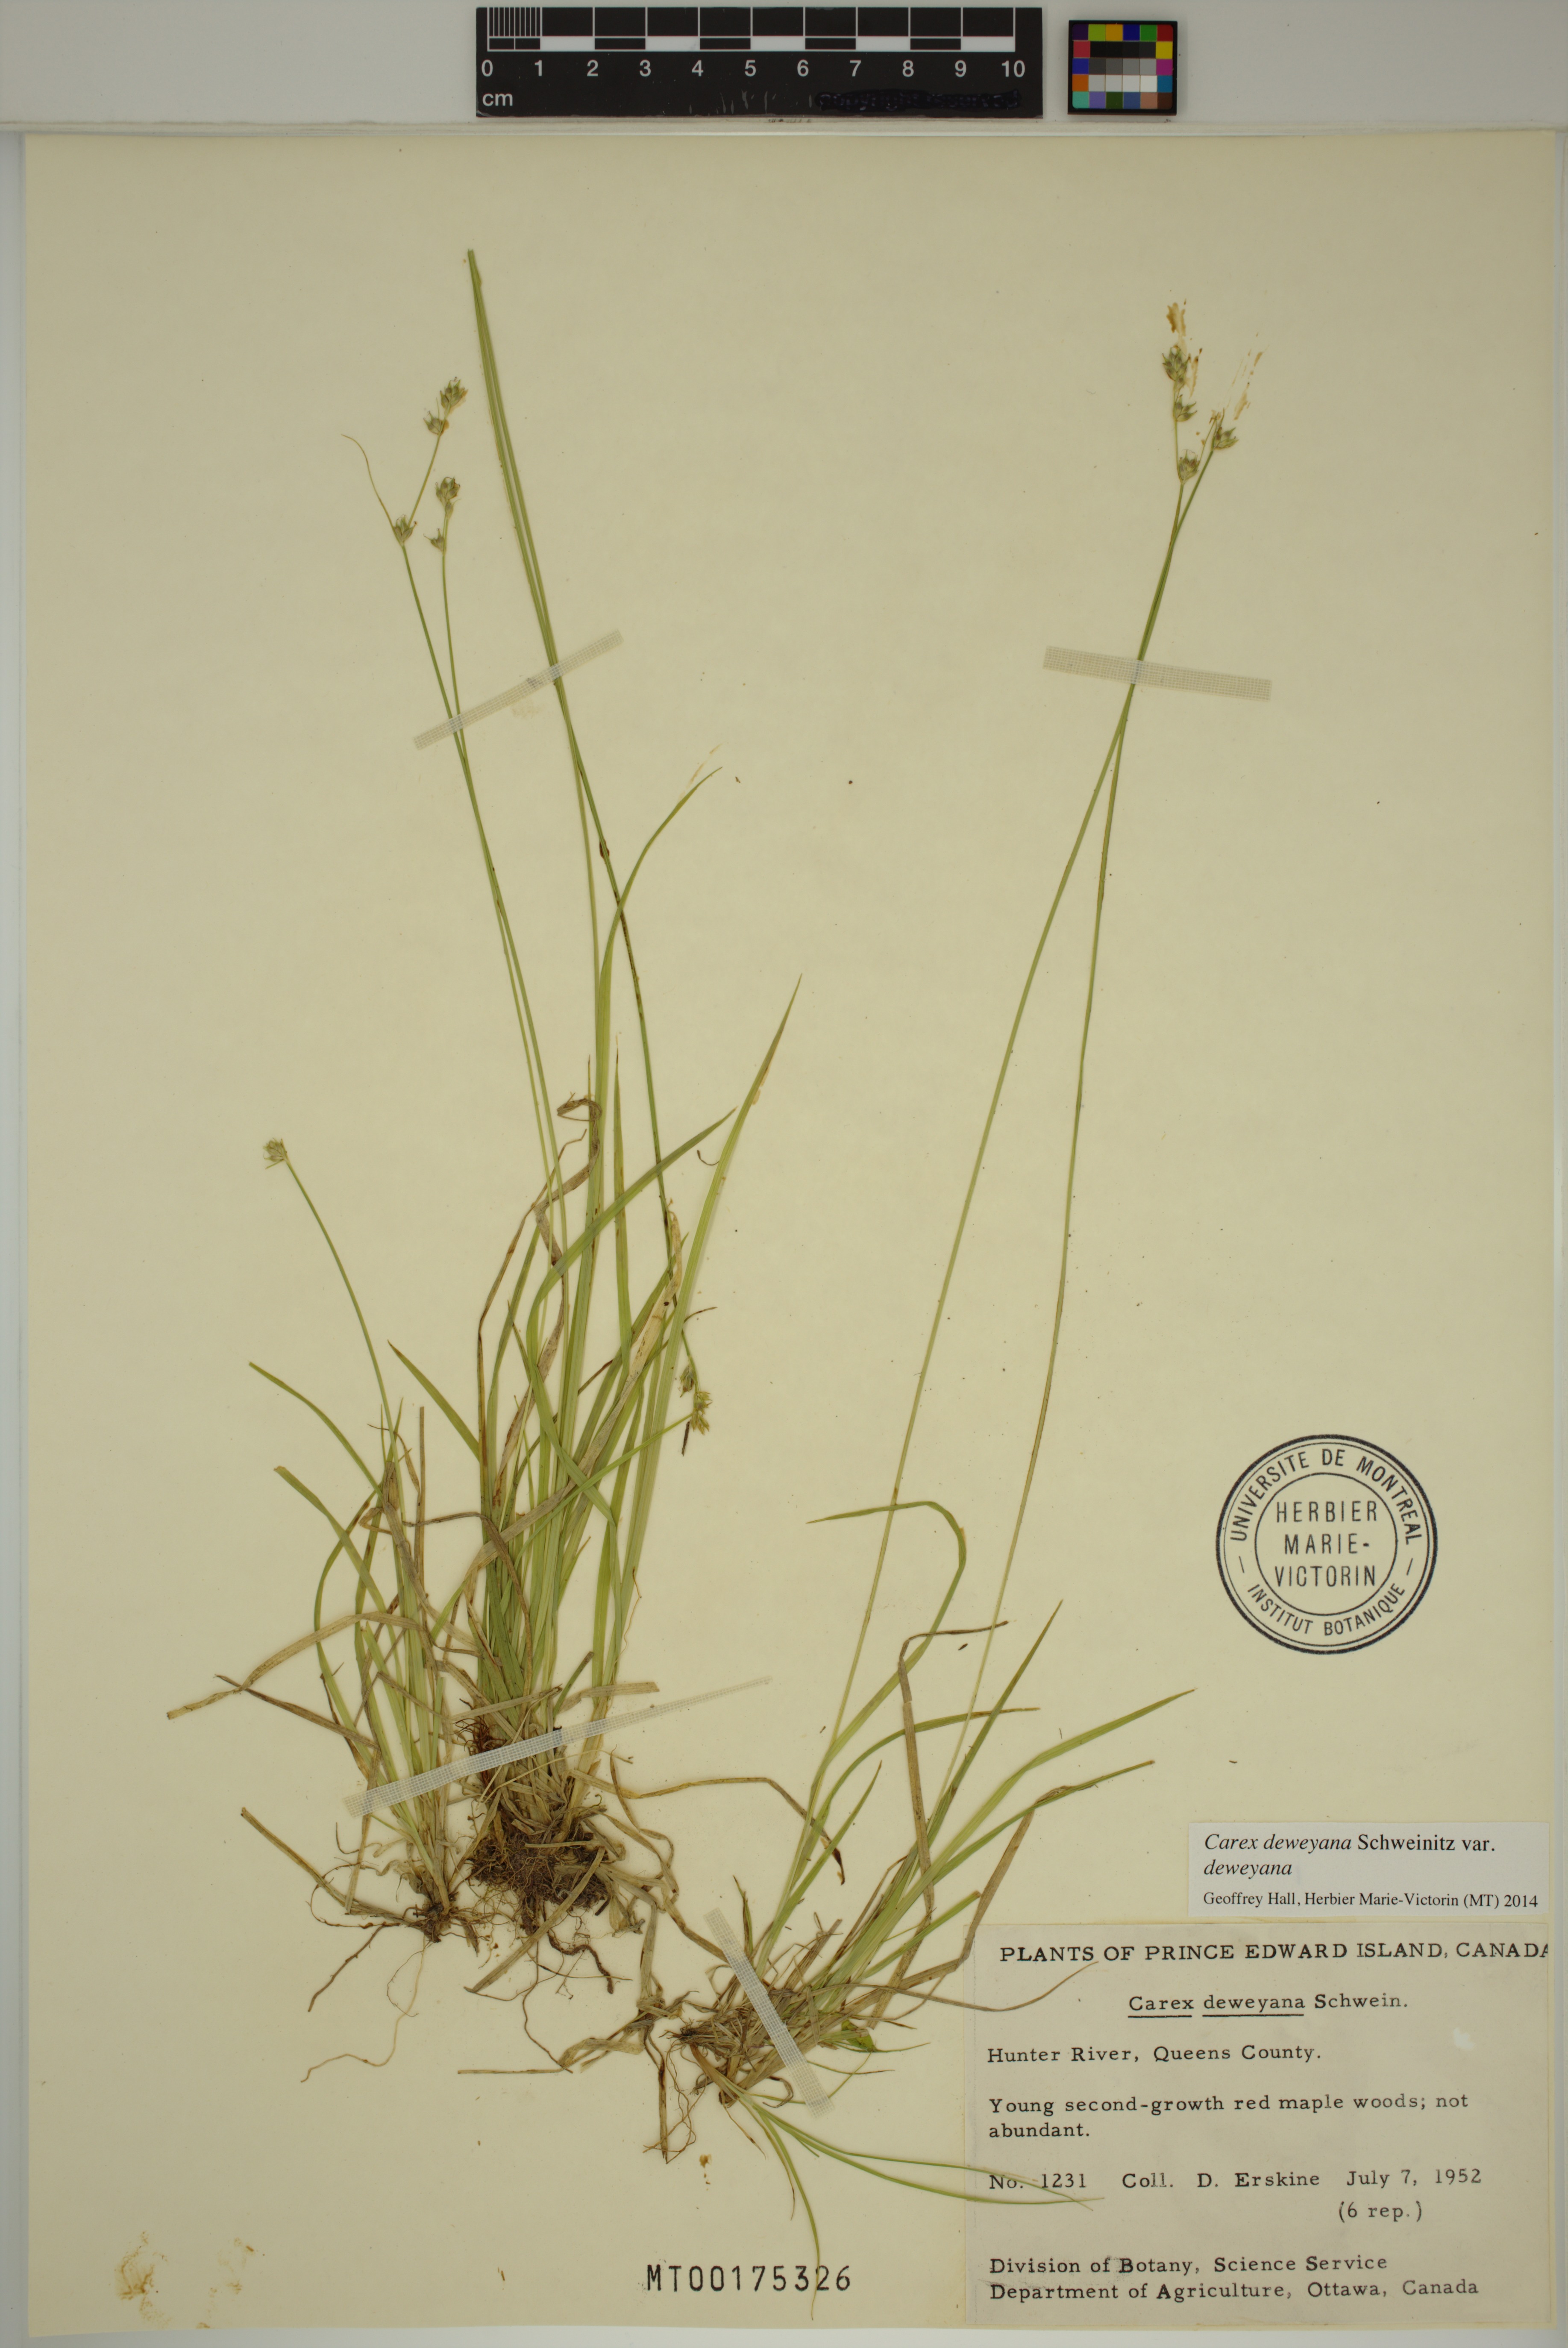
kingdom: Plantae
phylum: Tracheophyta
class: Liliopsida
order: Poales
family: Cyperaceae
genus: Carex
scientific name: Carex deweyana
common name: Dewey's sedge
